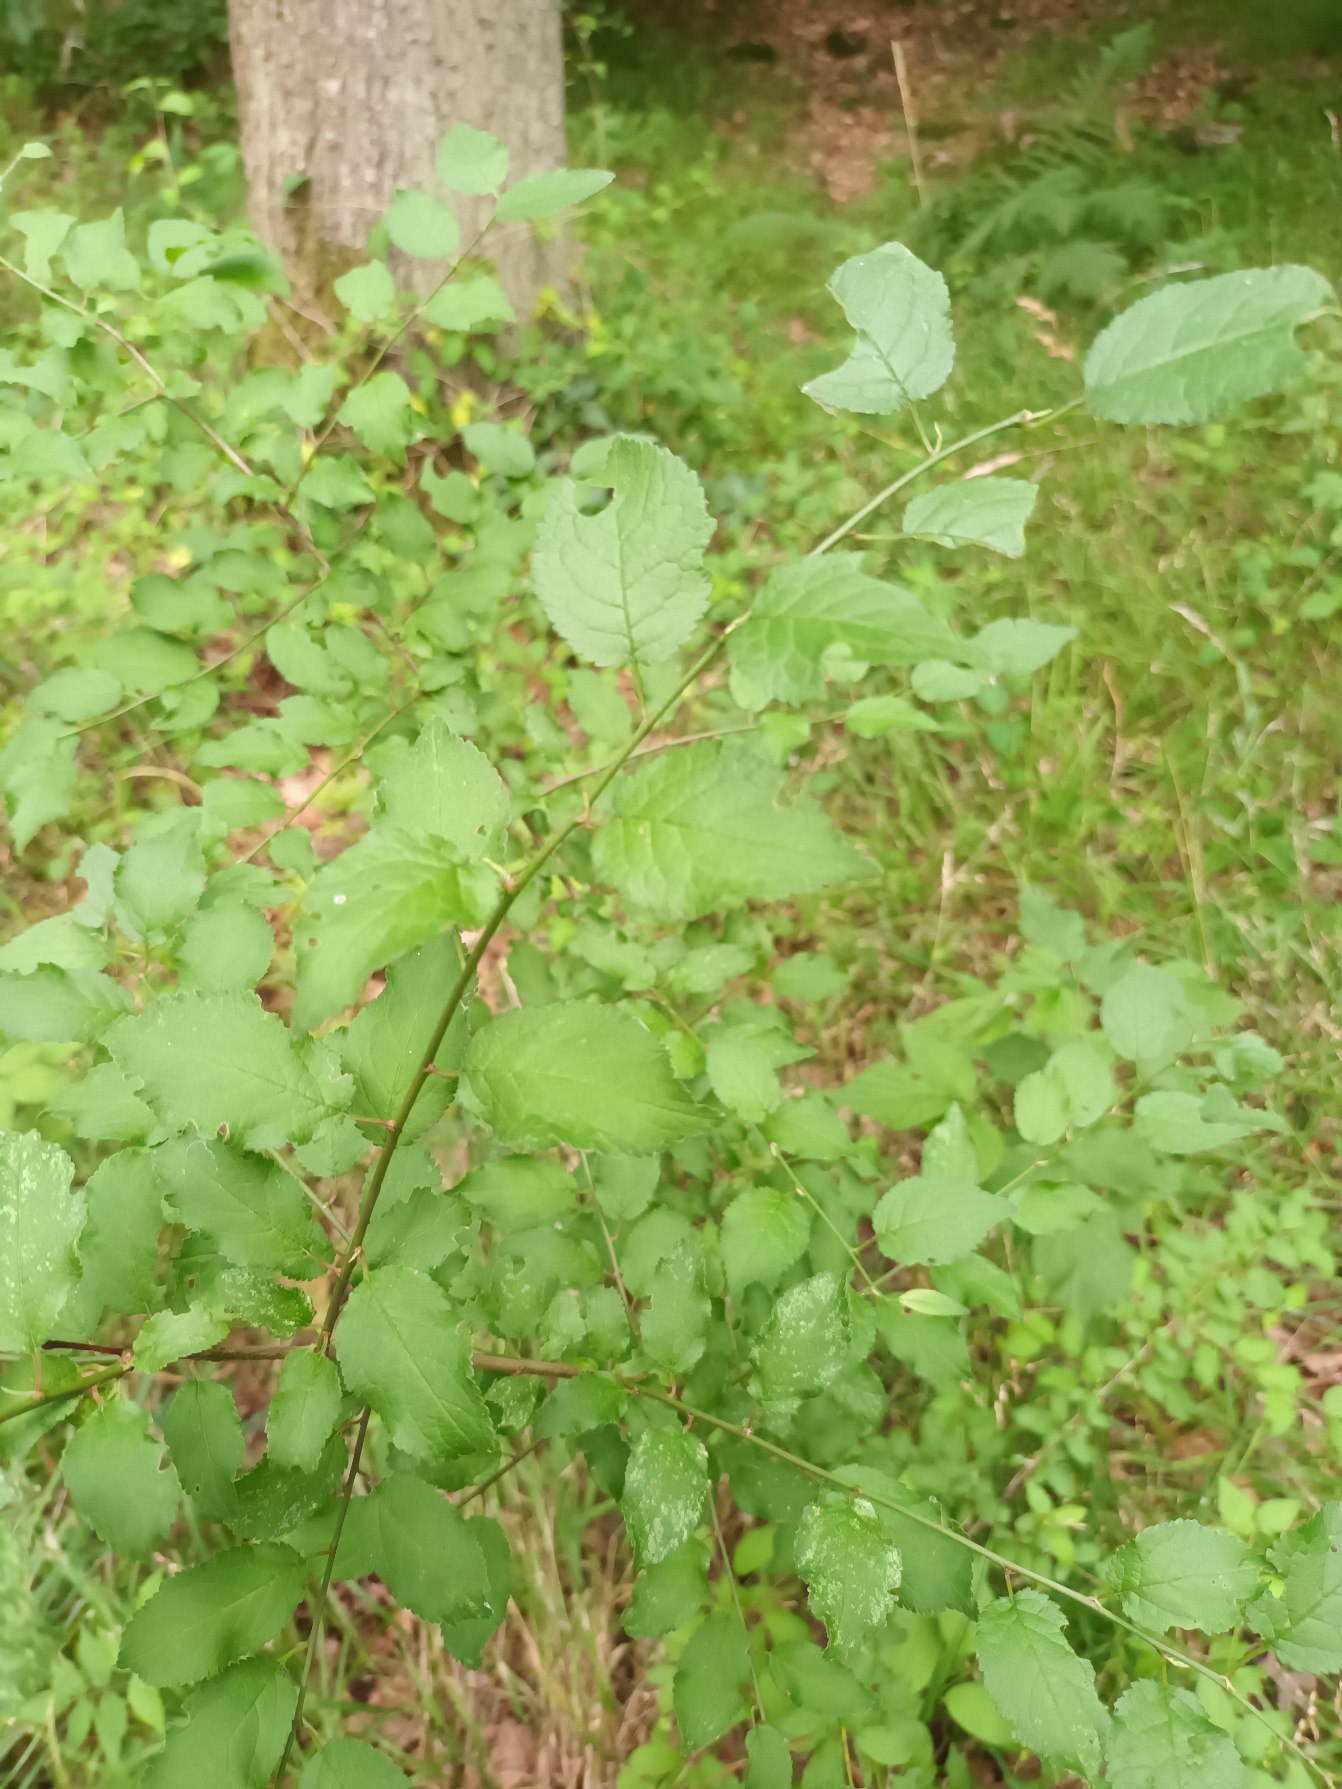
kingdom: Plantae
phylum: Tracheophyta
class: Magnoliopsida
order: Rosales
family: Rosaceae
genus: Prunus
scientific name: Prunus cerasifera
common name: Mirabel
